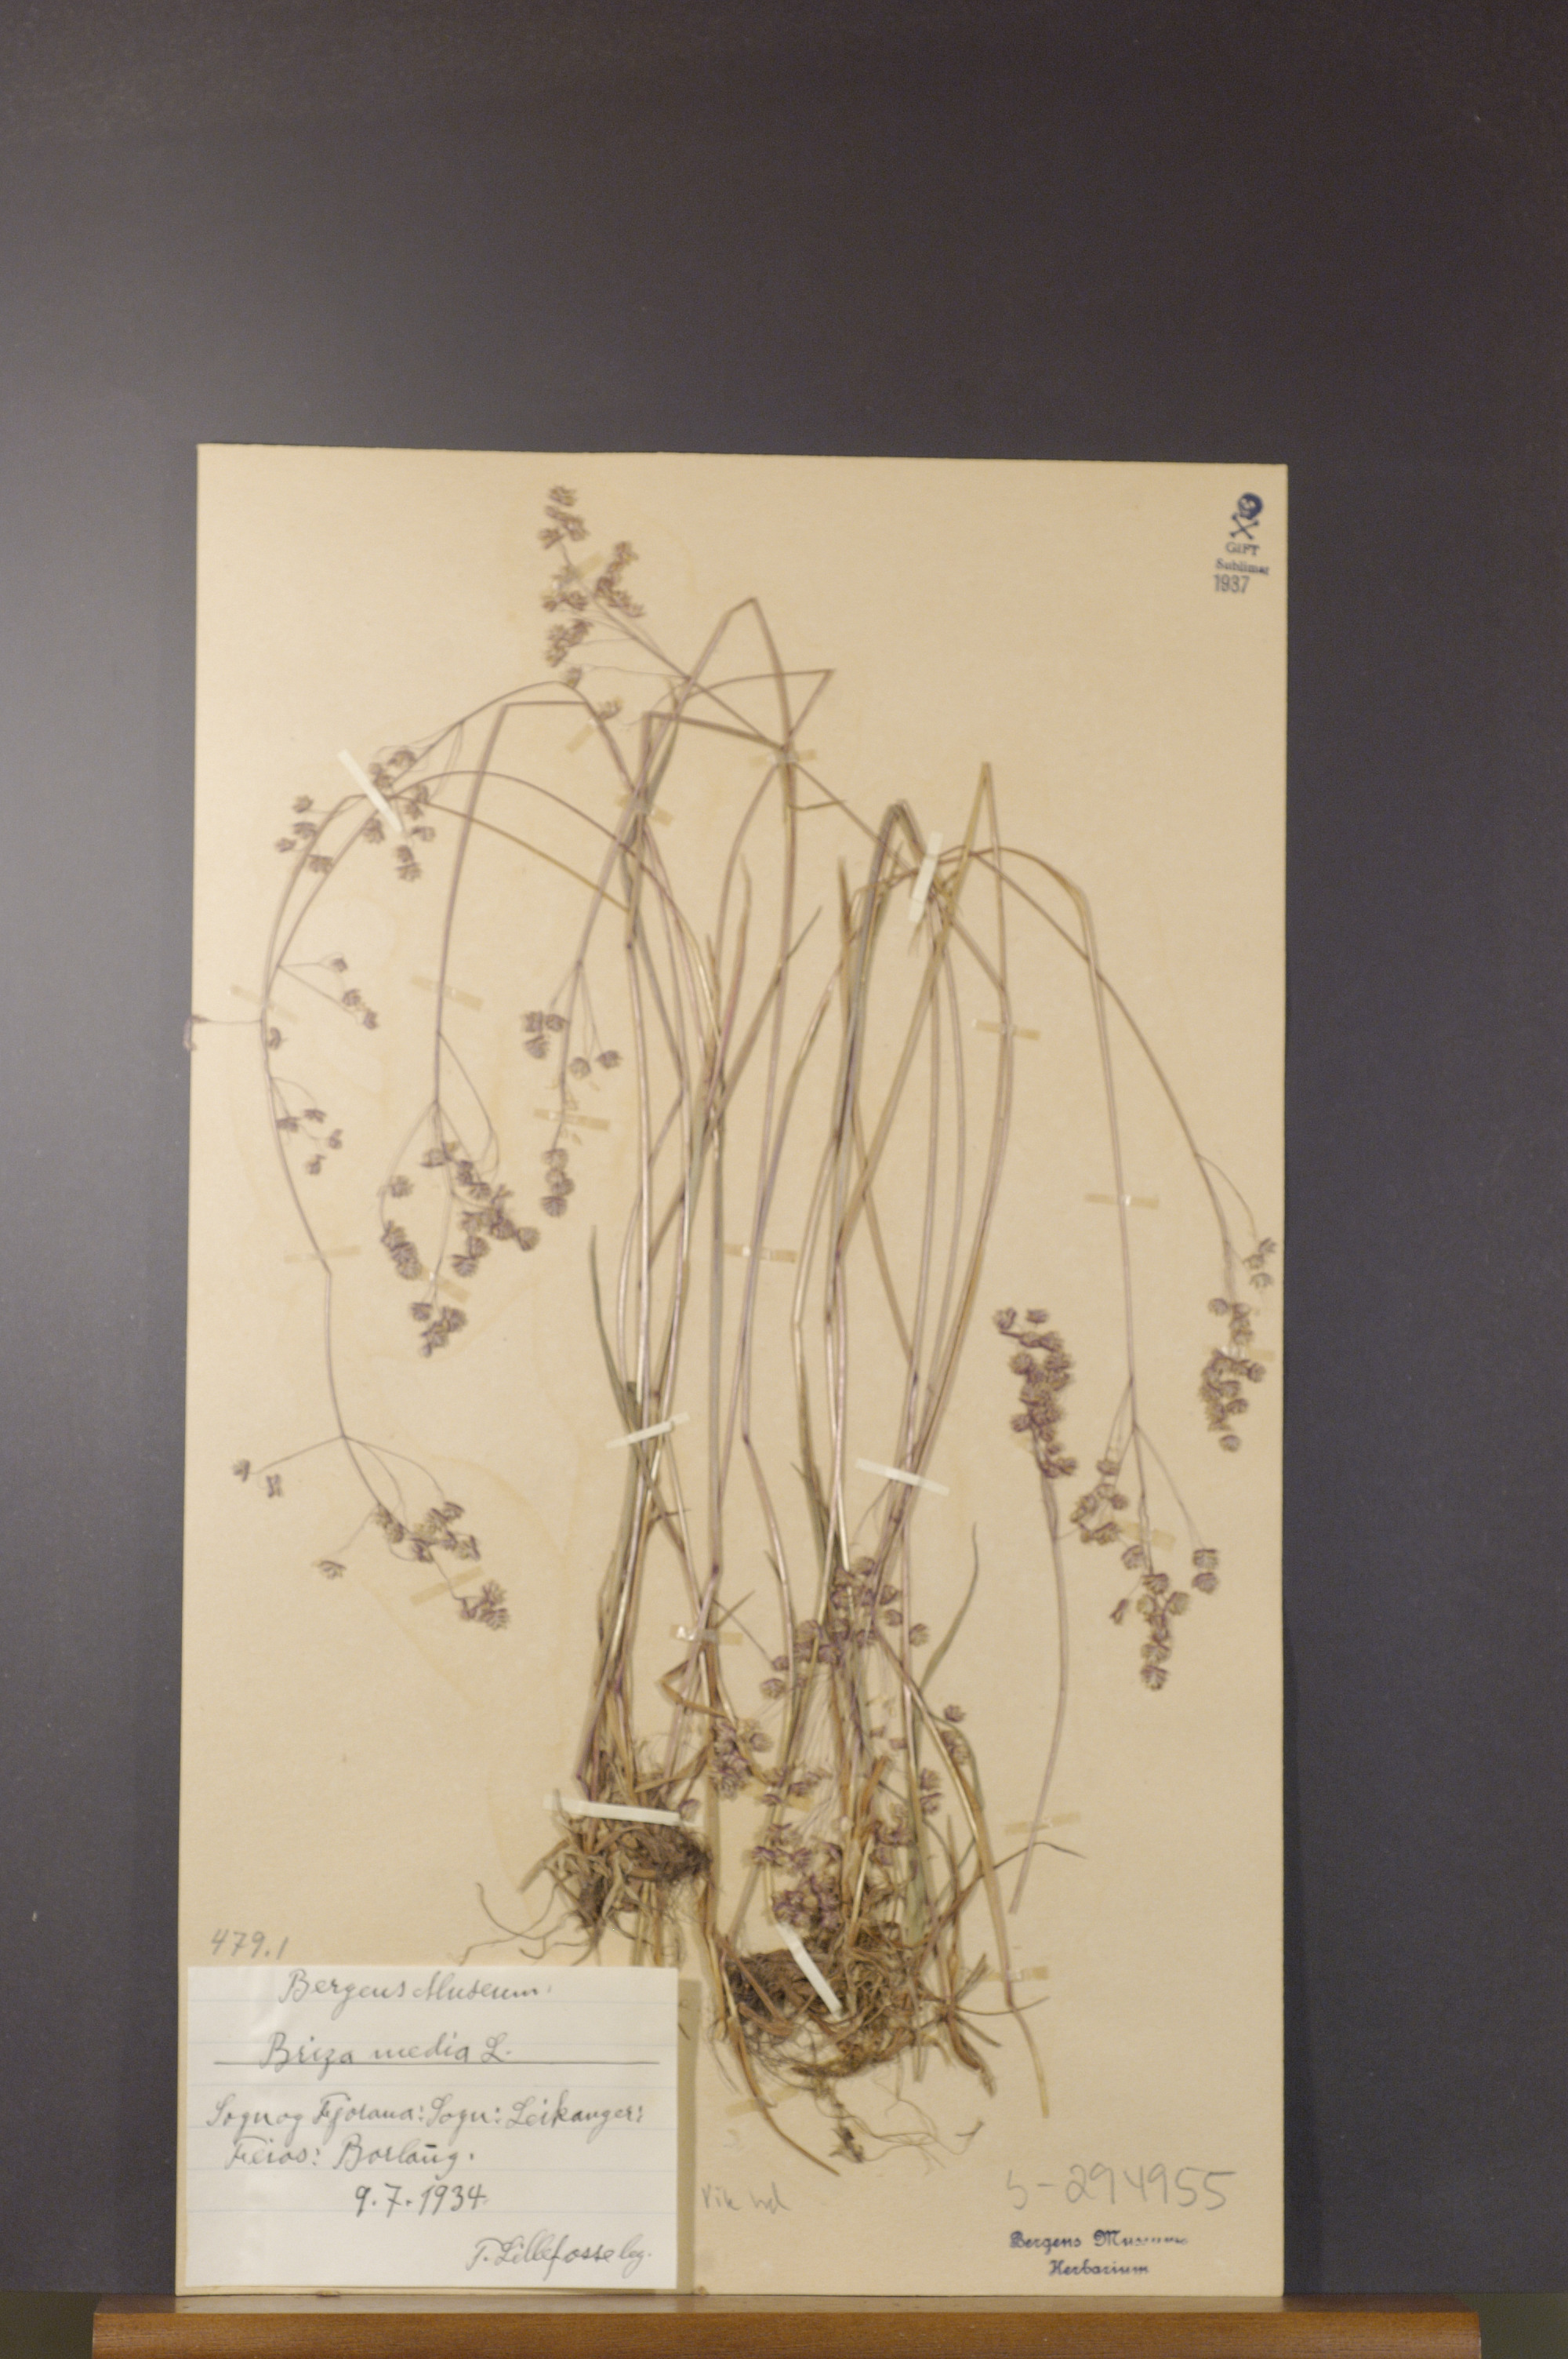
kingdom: Plantae
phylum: Tracheophyta
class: Liliopsida
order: Poales
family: Poaceae
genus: Briza
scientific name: Briza media
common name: Quaking grass
